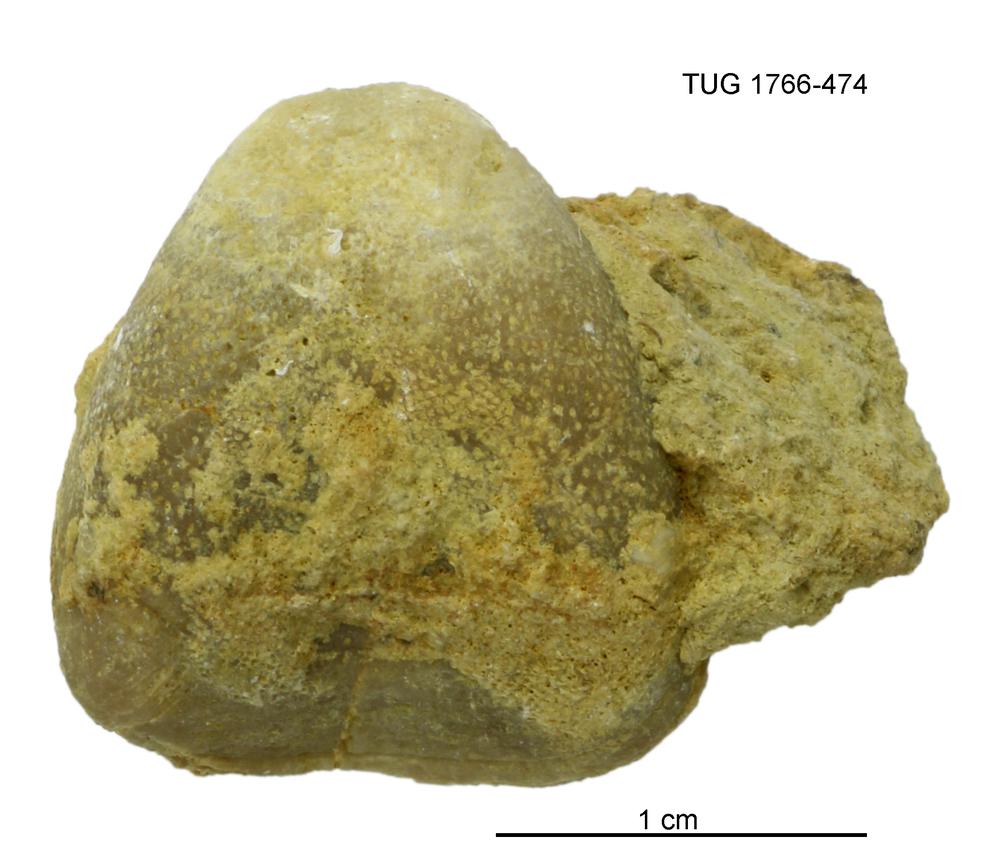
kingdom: Animalia
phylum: Brachiopoda
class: Rhynchonellata
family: Porambonitidae
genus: Porambonites
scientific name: Porambonites
